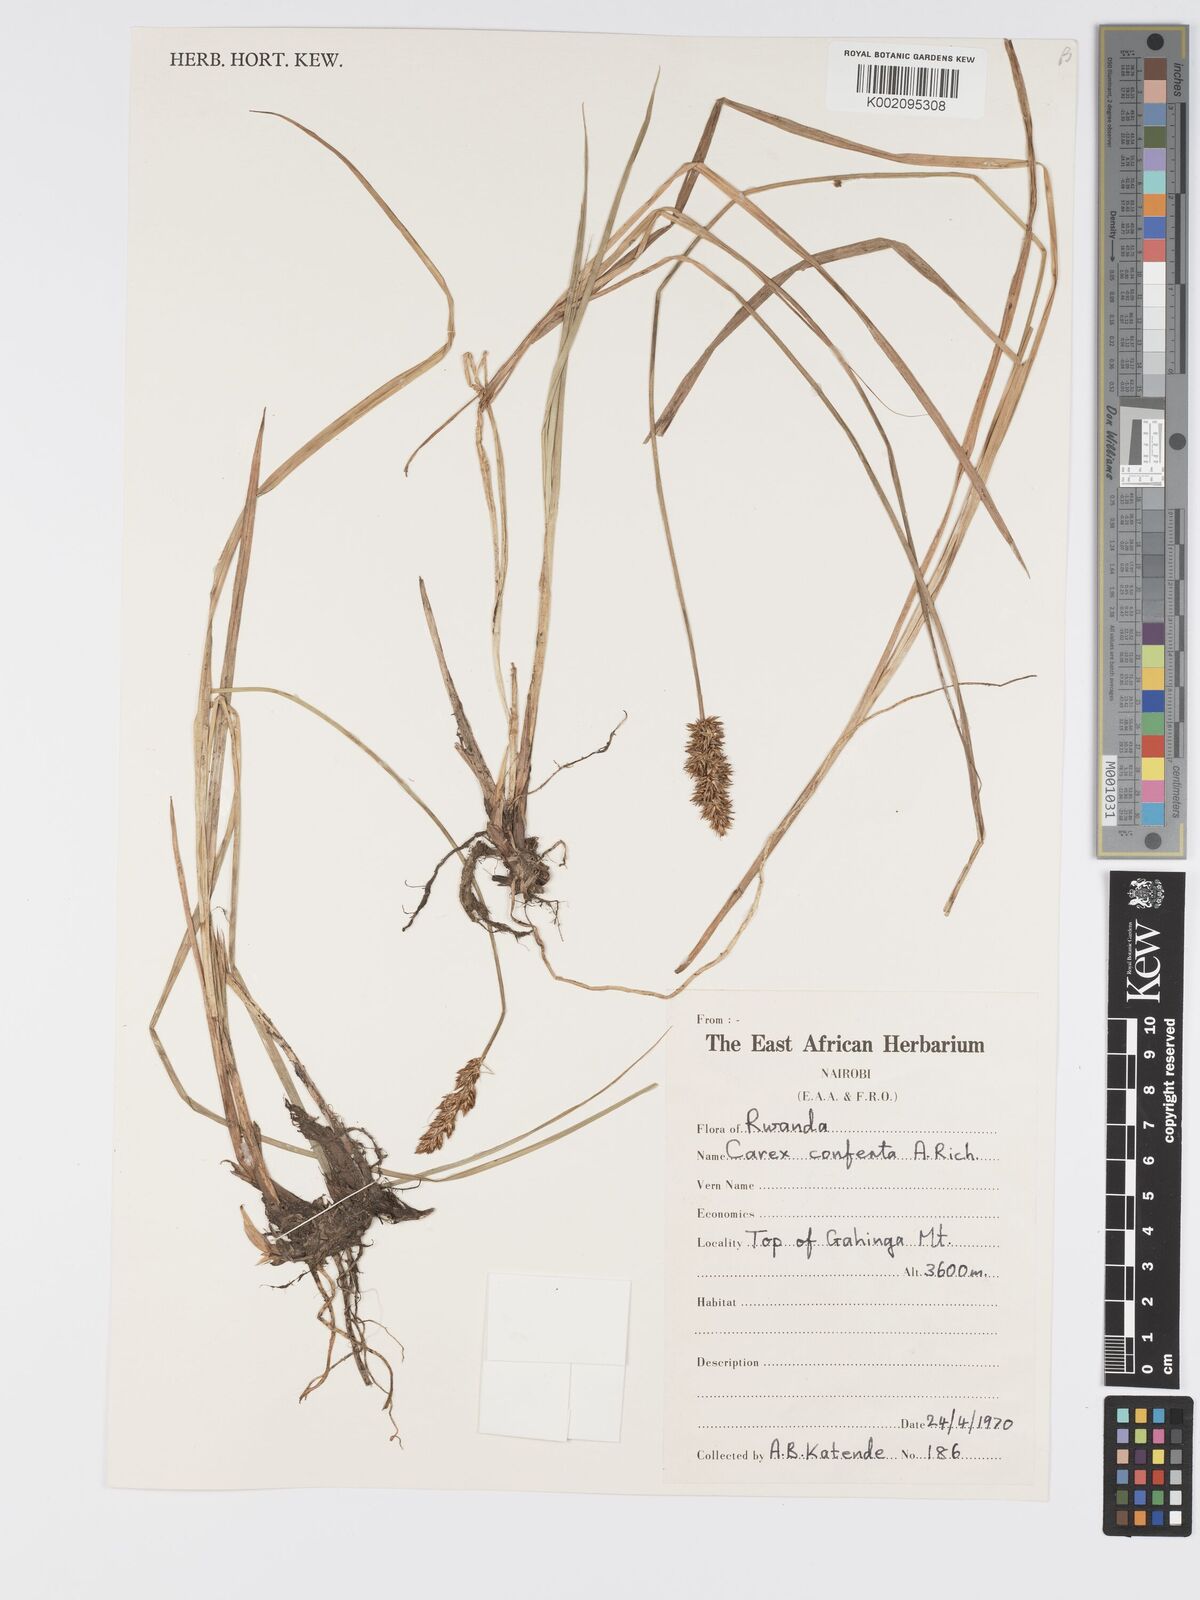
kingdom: Plantae
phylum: Tracheophyta
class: Liliopsida
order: Poales
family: Cyperaceae
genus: Carex
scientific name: Carex conferta
